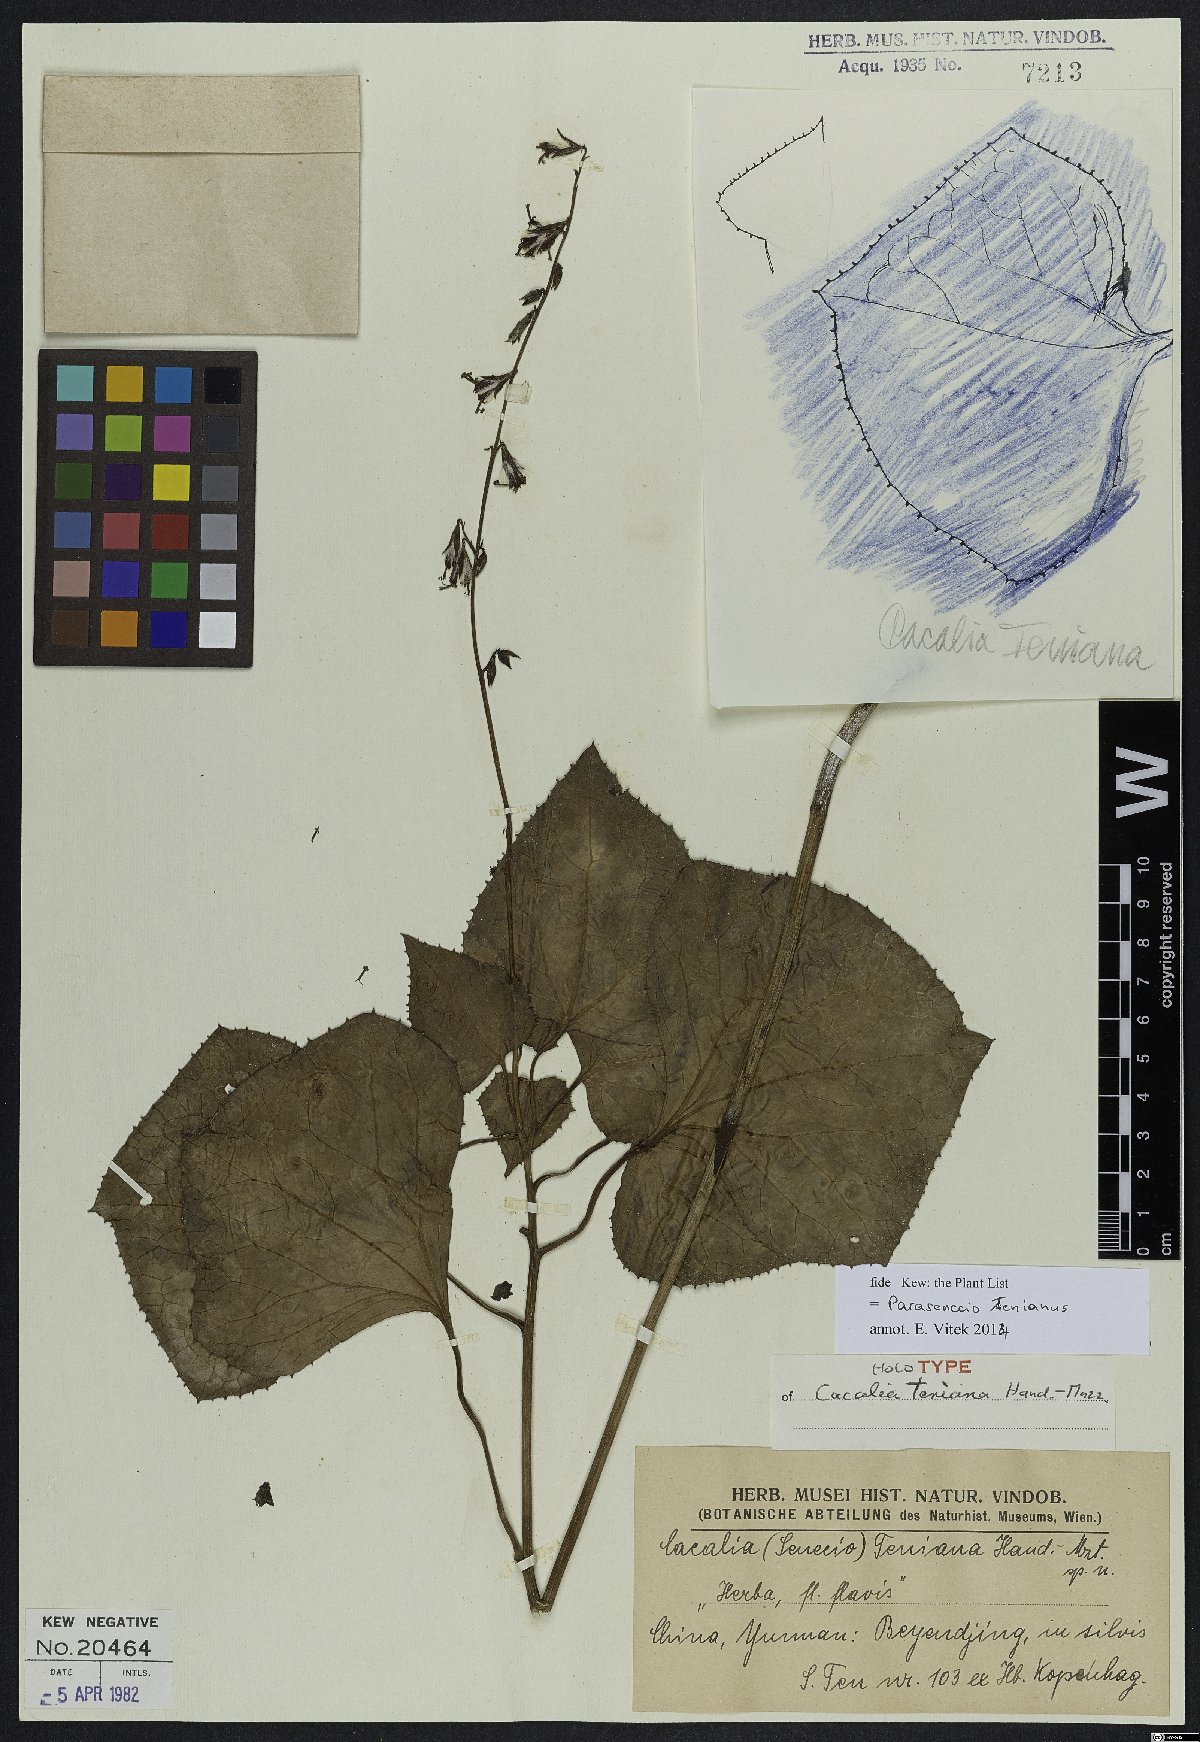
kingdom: Plantae
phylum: Tracheophyta
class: Magnoliopsida
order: Asterales
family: Asteraceae
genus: Parasenecio
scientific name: Parasenecio tenianus
